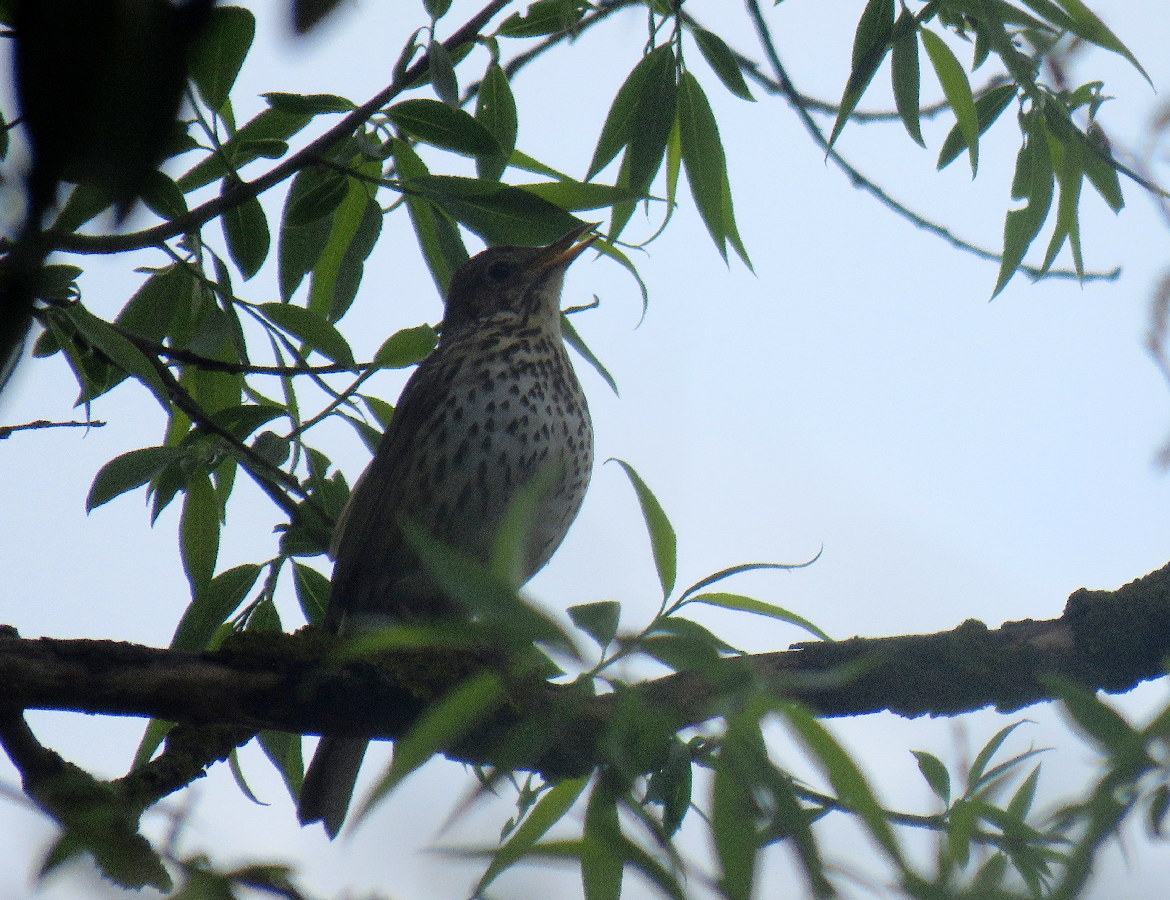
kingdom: Animalia
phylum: Chordata
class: Aves
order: Passeriformes
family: Turdidae
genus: Turdus
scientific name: Turdus philomelos
